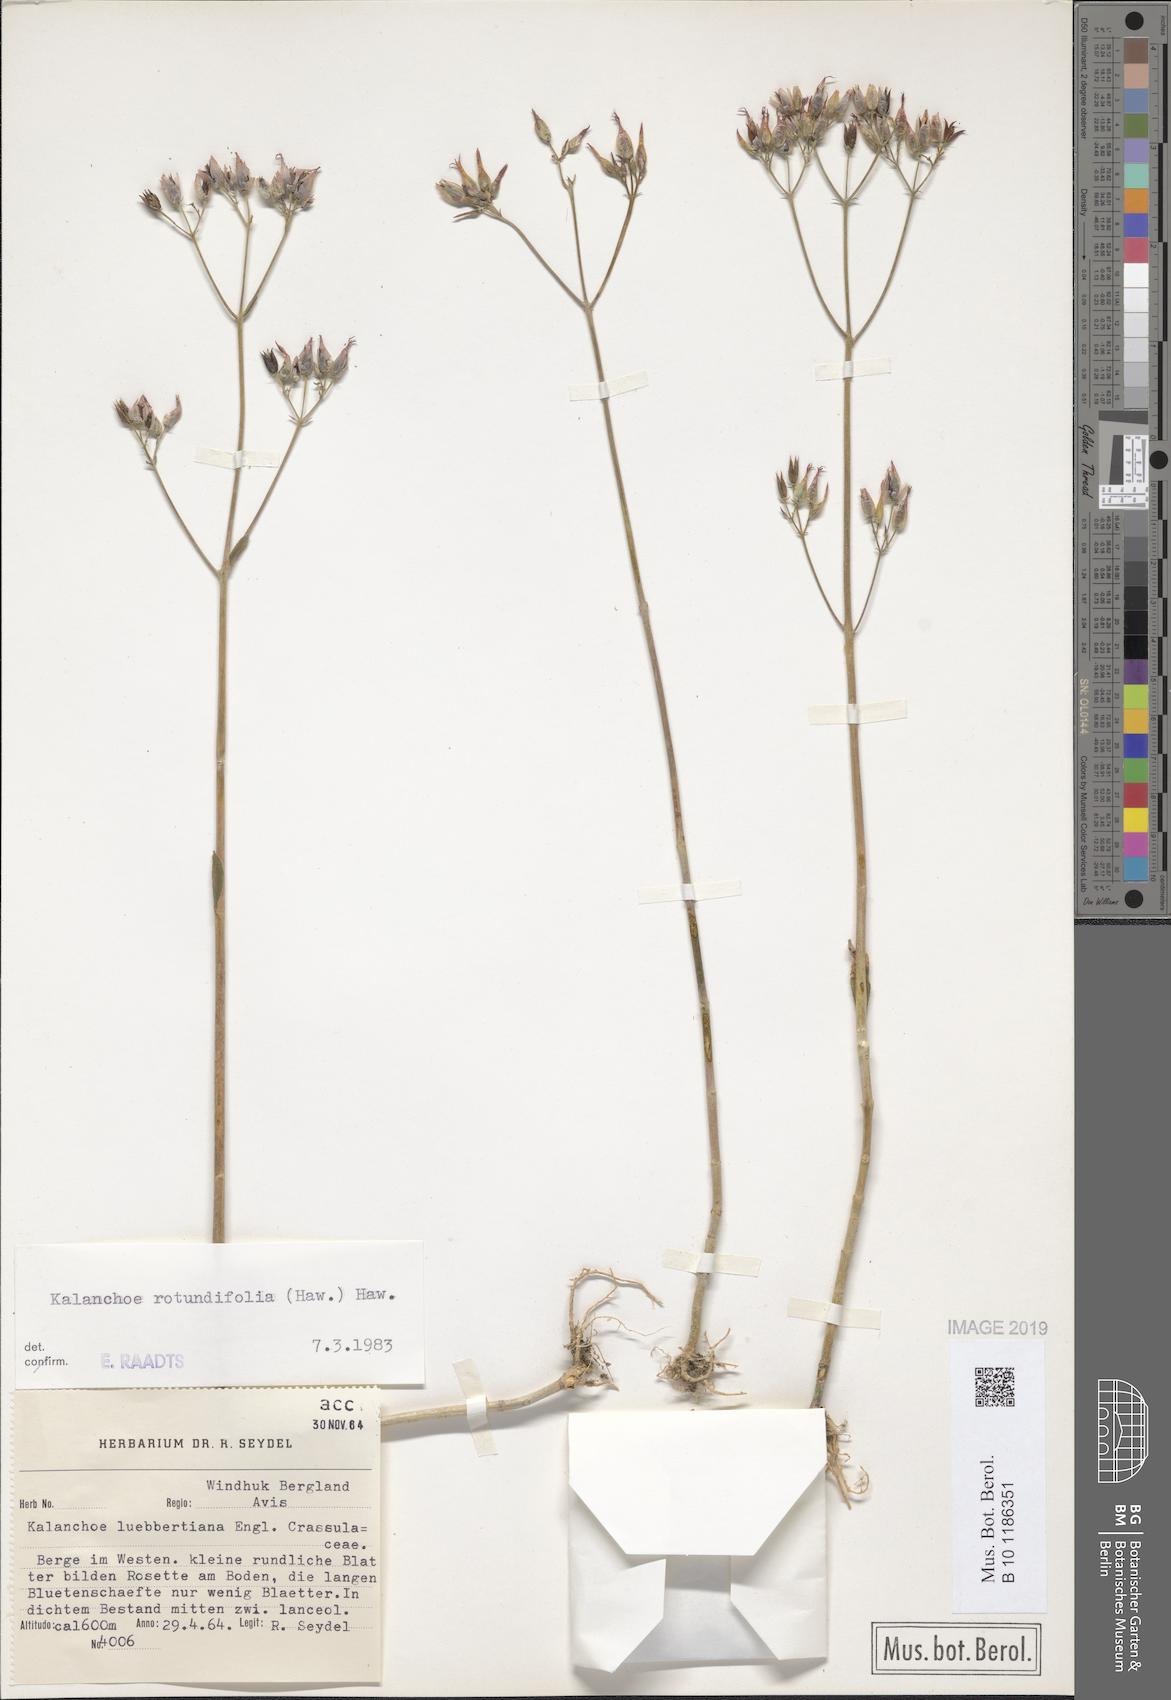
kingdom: Plantae
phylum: Tracheophyta
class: Magnoliopsida
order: Saxifragales
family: Crassulaceae
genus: Kalanchoe
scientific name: Kalanchoe rotundifolia
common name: Common kalanchoe
